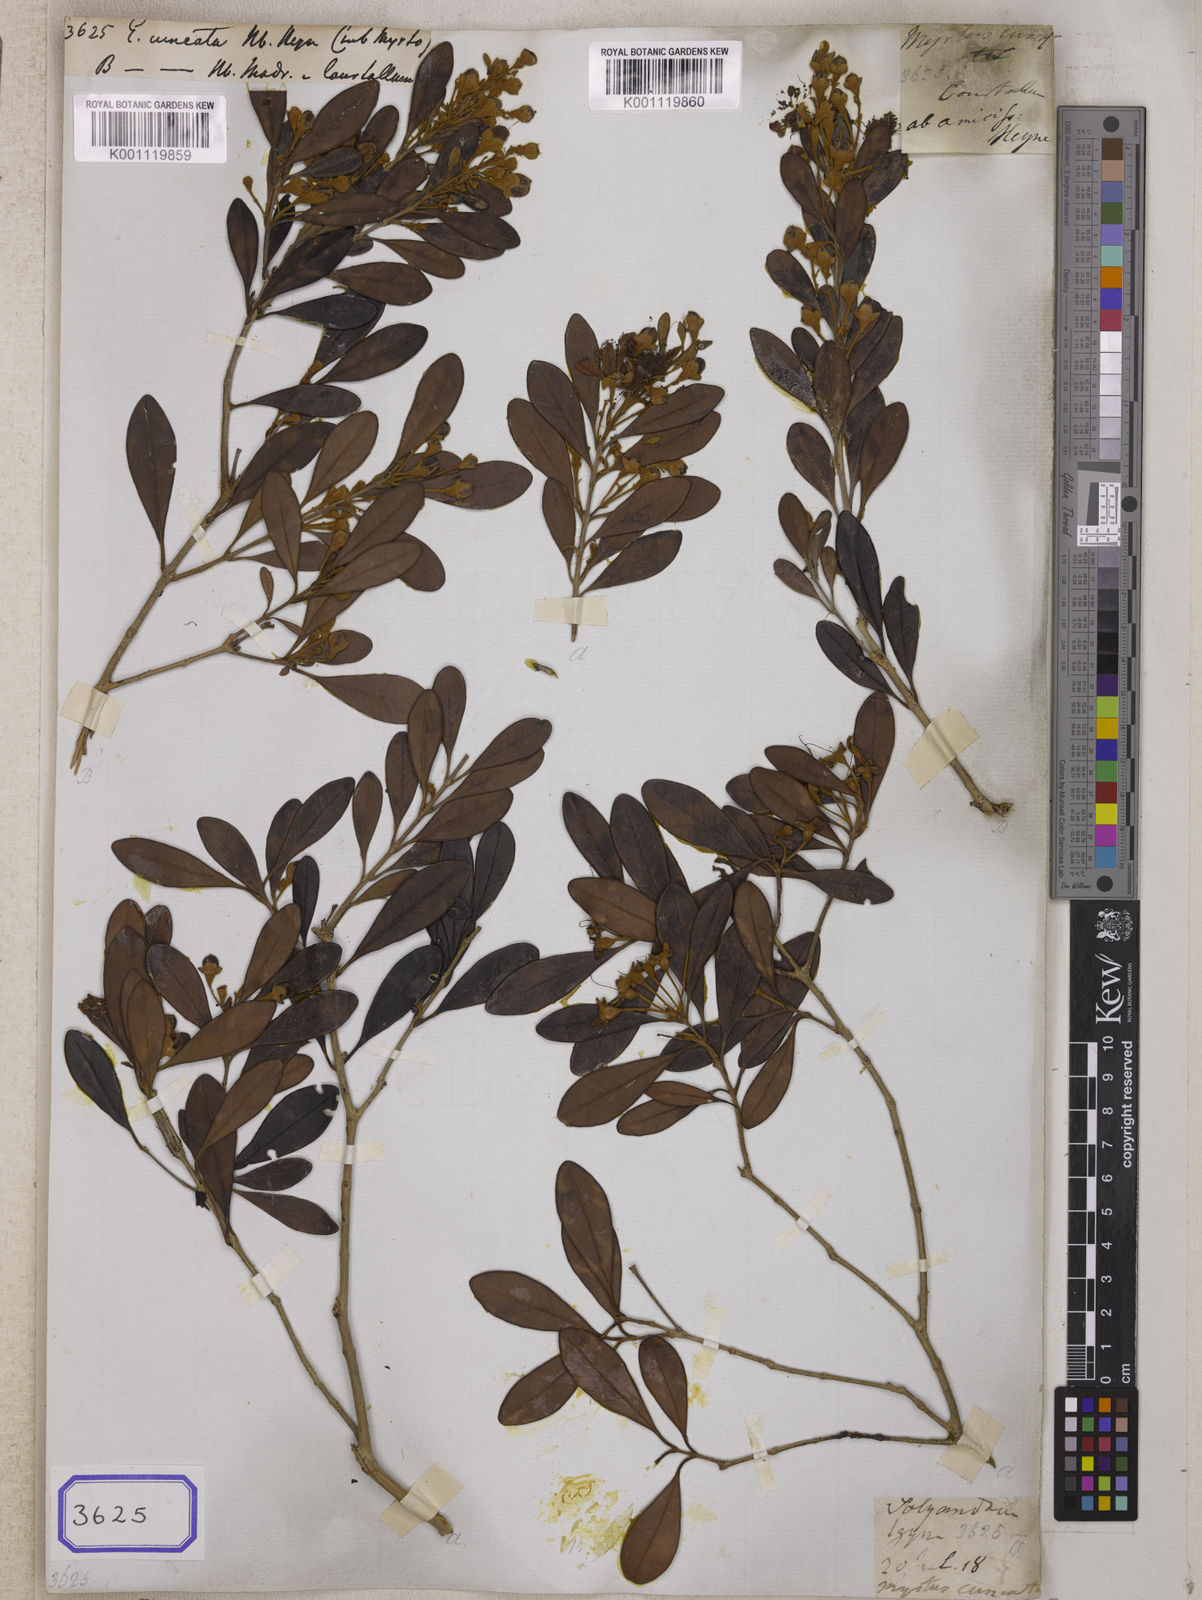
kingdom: Plantae
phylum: Tracheophyta
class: Magnoliopsida
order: Myrtales
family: Myrtaceae
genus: Eugenia
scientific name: Eugenia
